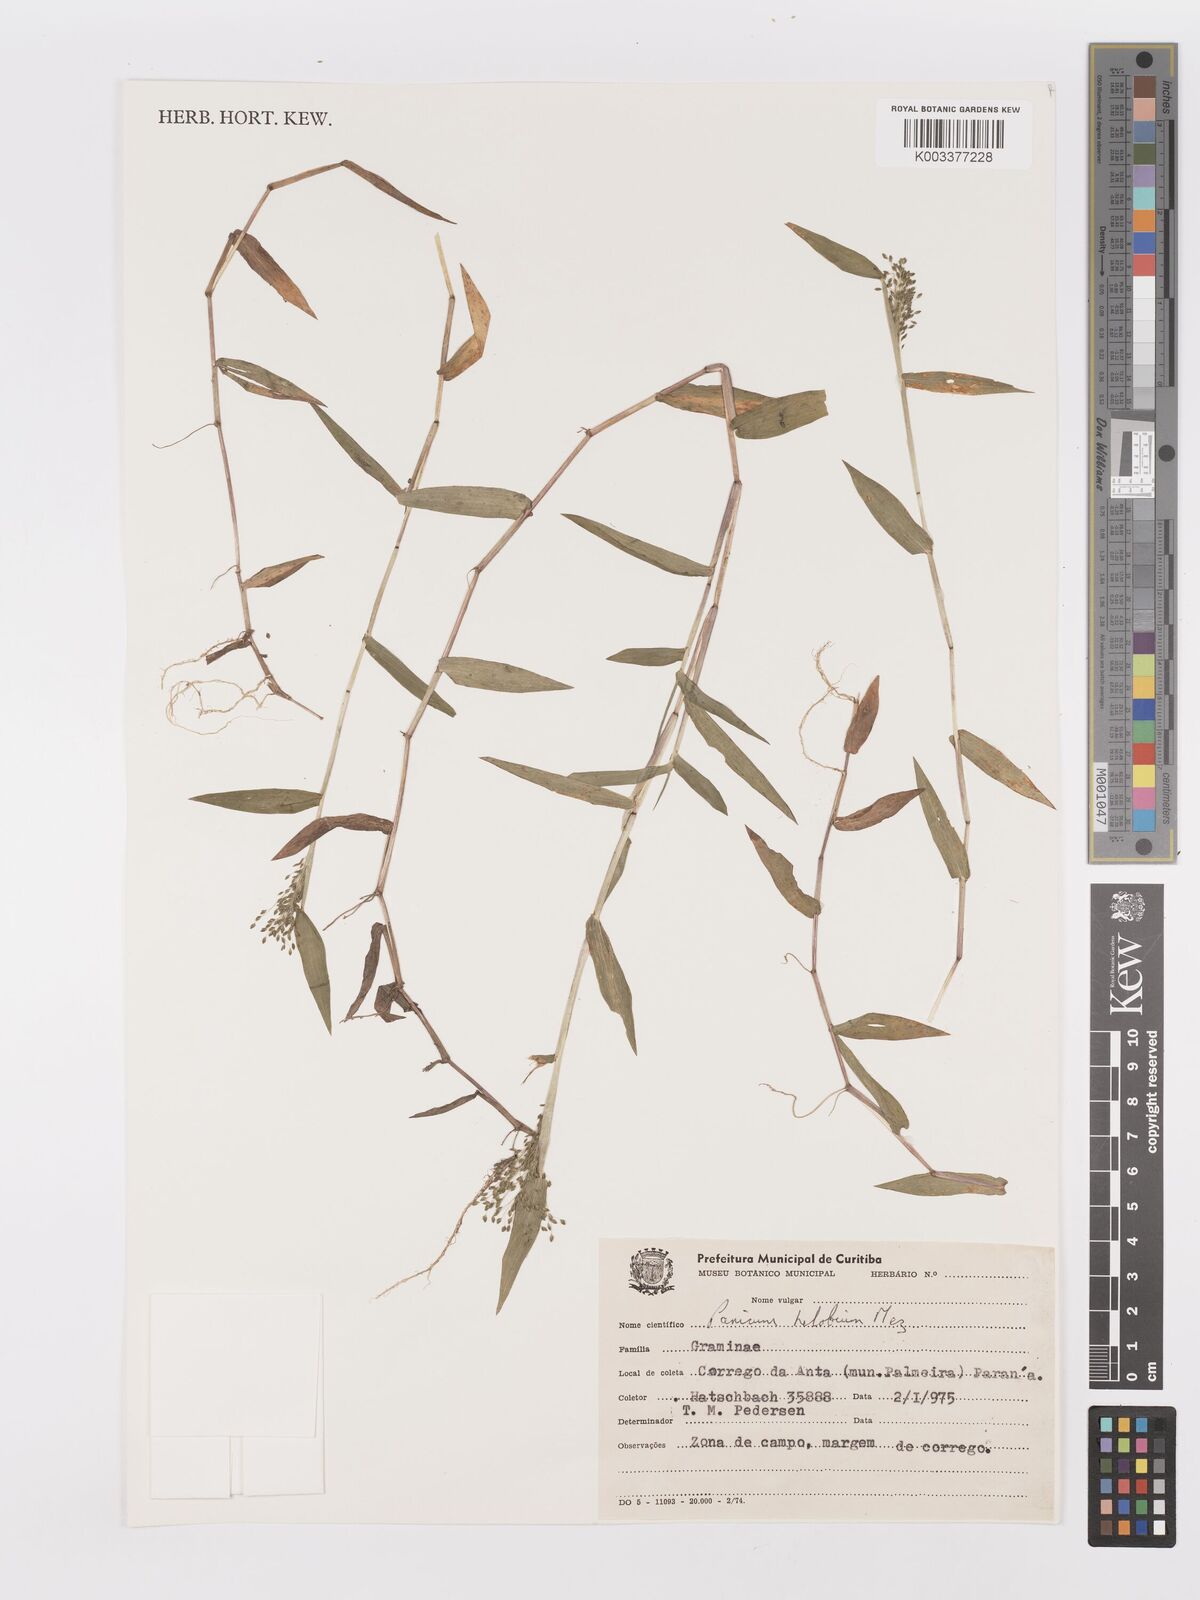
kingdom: Plantae
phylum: Tracheophyta
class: Liliopsida
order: Poales
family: Poaceae
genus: Trichanthecium
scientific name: Trichanthecium schwackeanum
